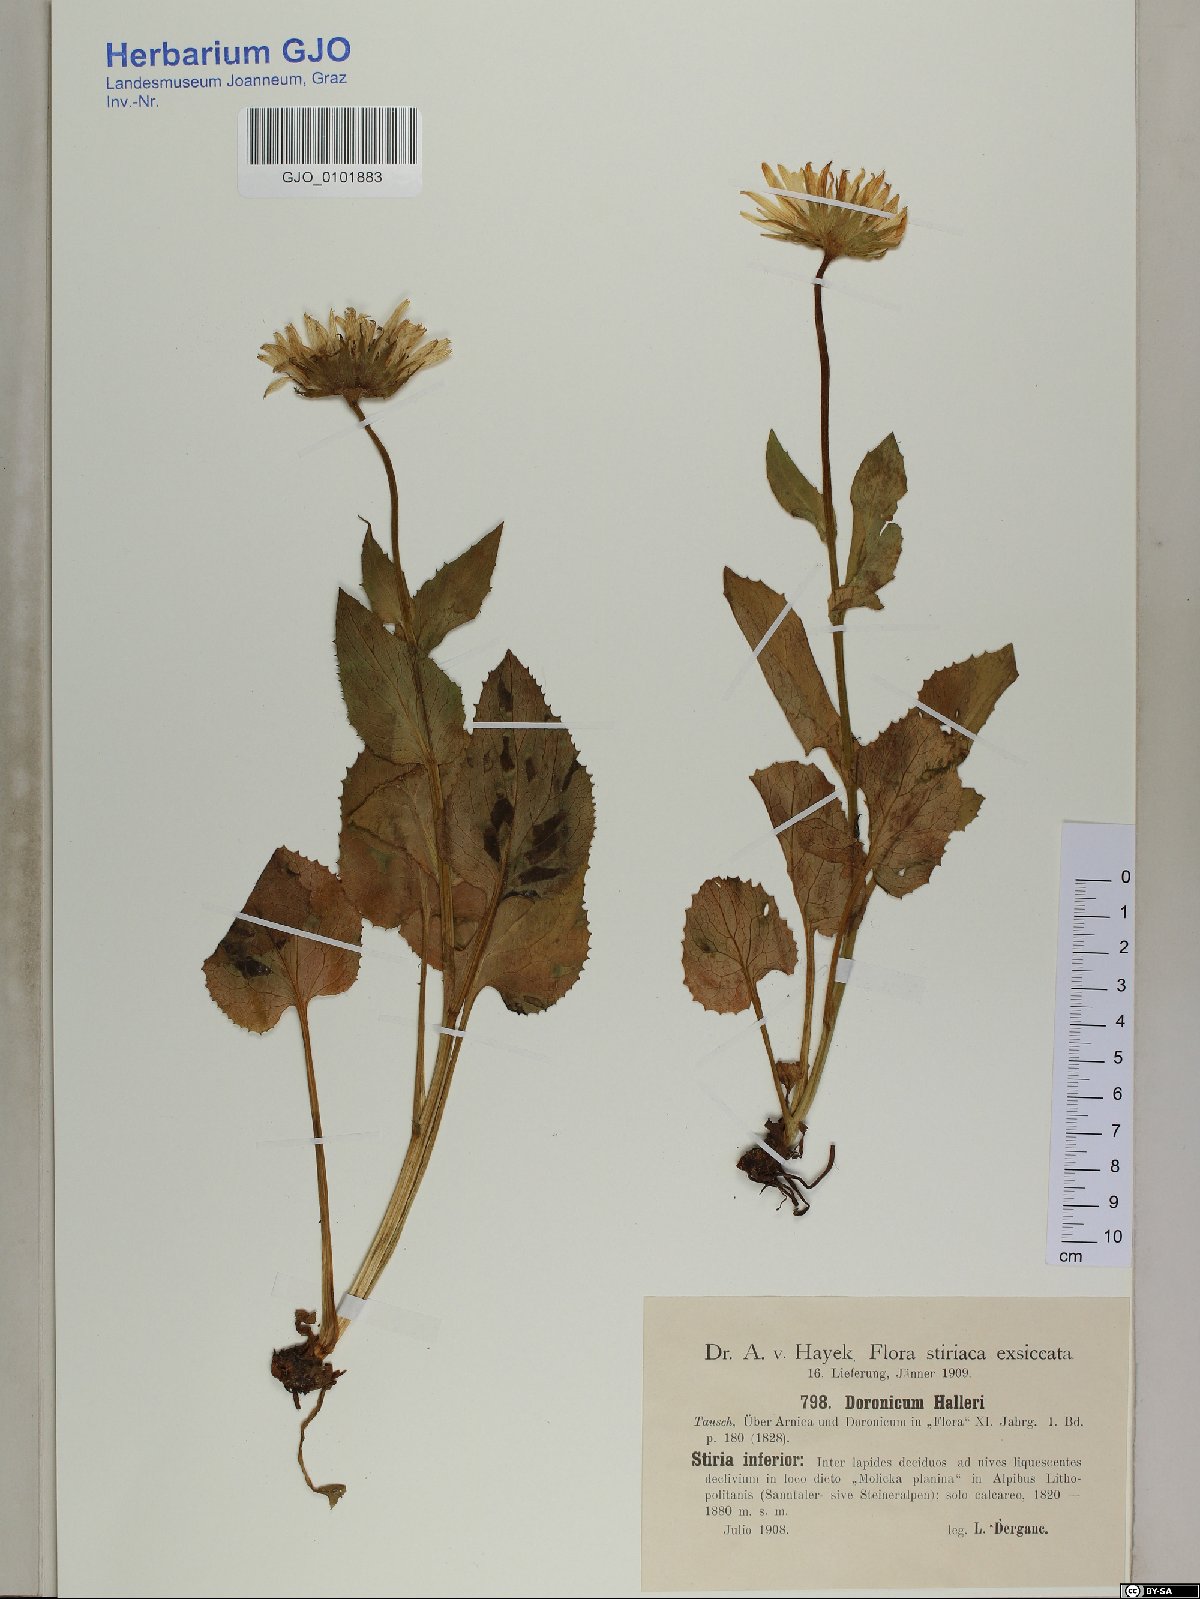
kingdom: Plantae
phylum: Tracheophyta
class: Magnoliopsida
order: Asterales
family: Asteraceae
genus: Doronicum
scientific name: Doronicum grandiflorum
